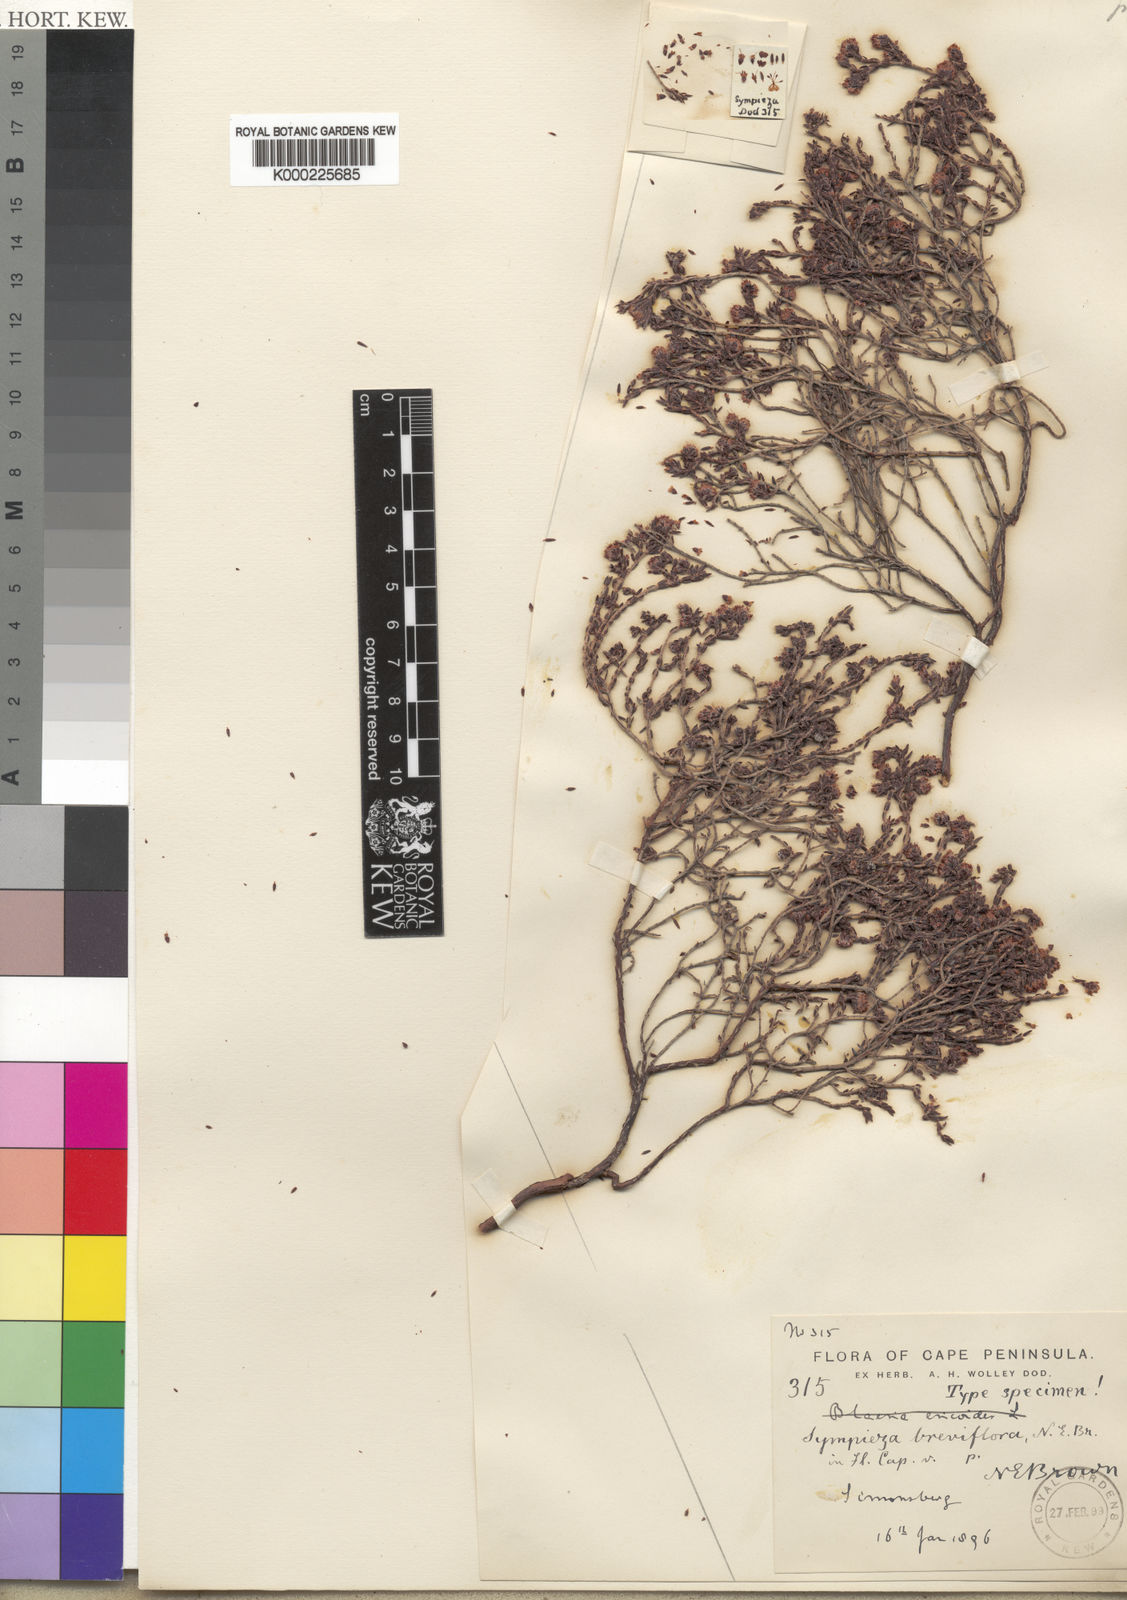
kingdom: Plantae
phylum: Tracheophyta
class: Magnoliopsida
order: Ericales
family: Ericaceae
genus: Erica
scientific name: Erica labialis
